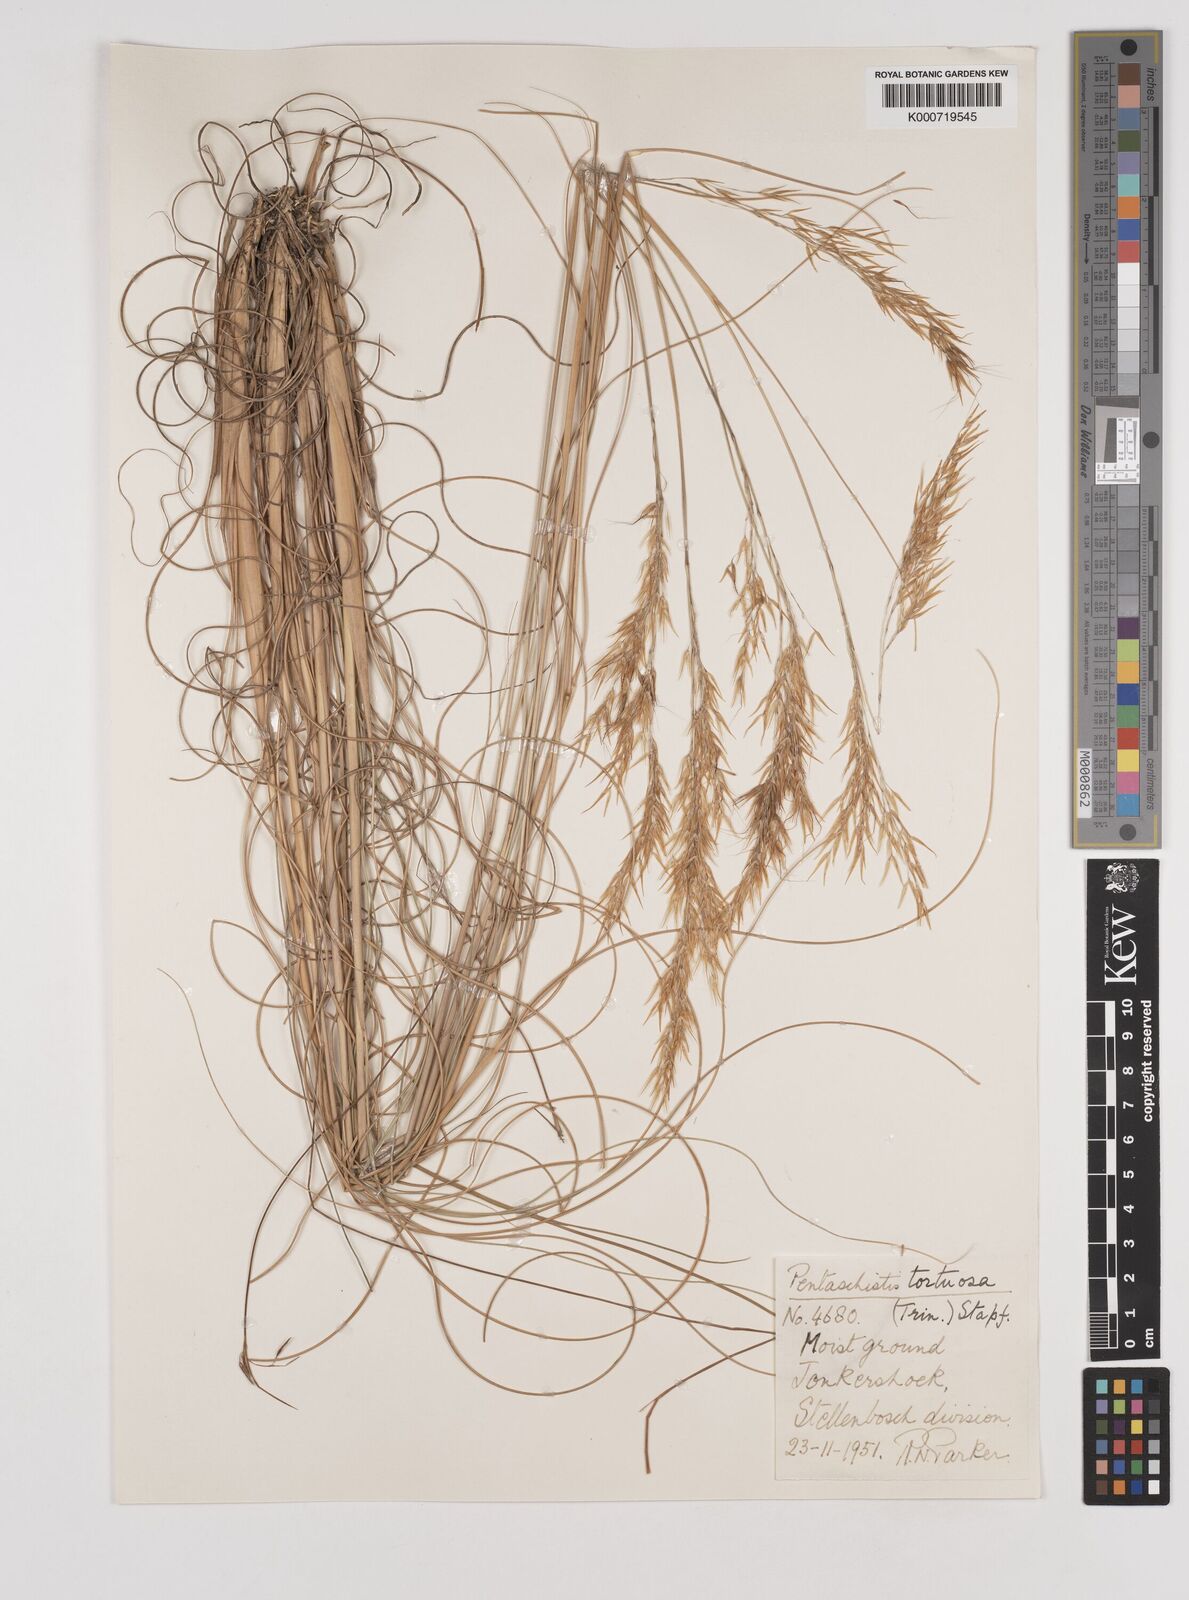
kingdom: Plantae
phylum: Tracheophyta
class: Liliopsida
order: Poales
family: Poaceae
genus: Pentameris
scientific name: Pentameris tortuosa
